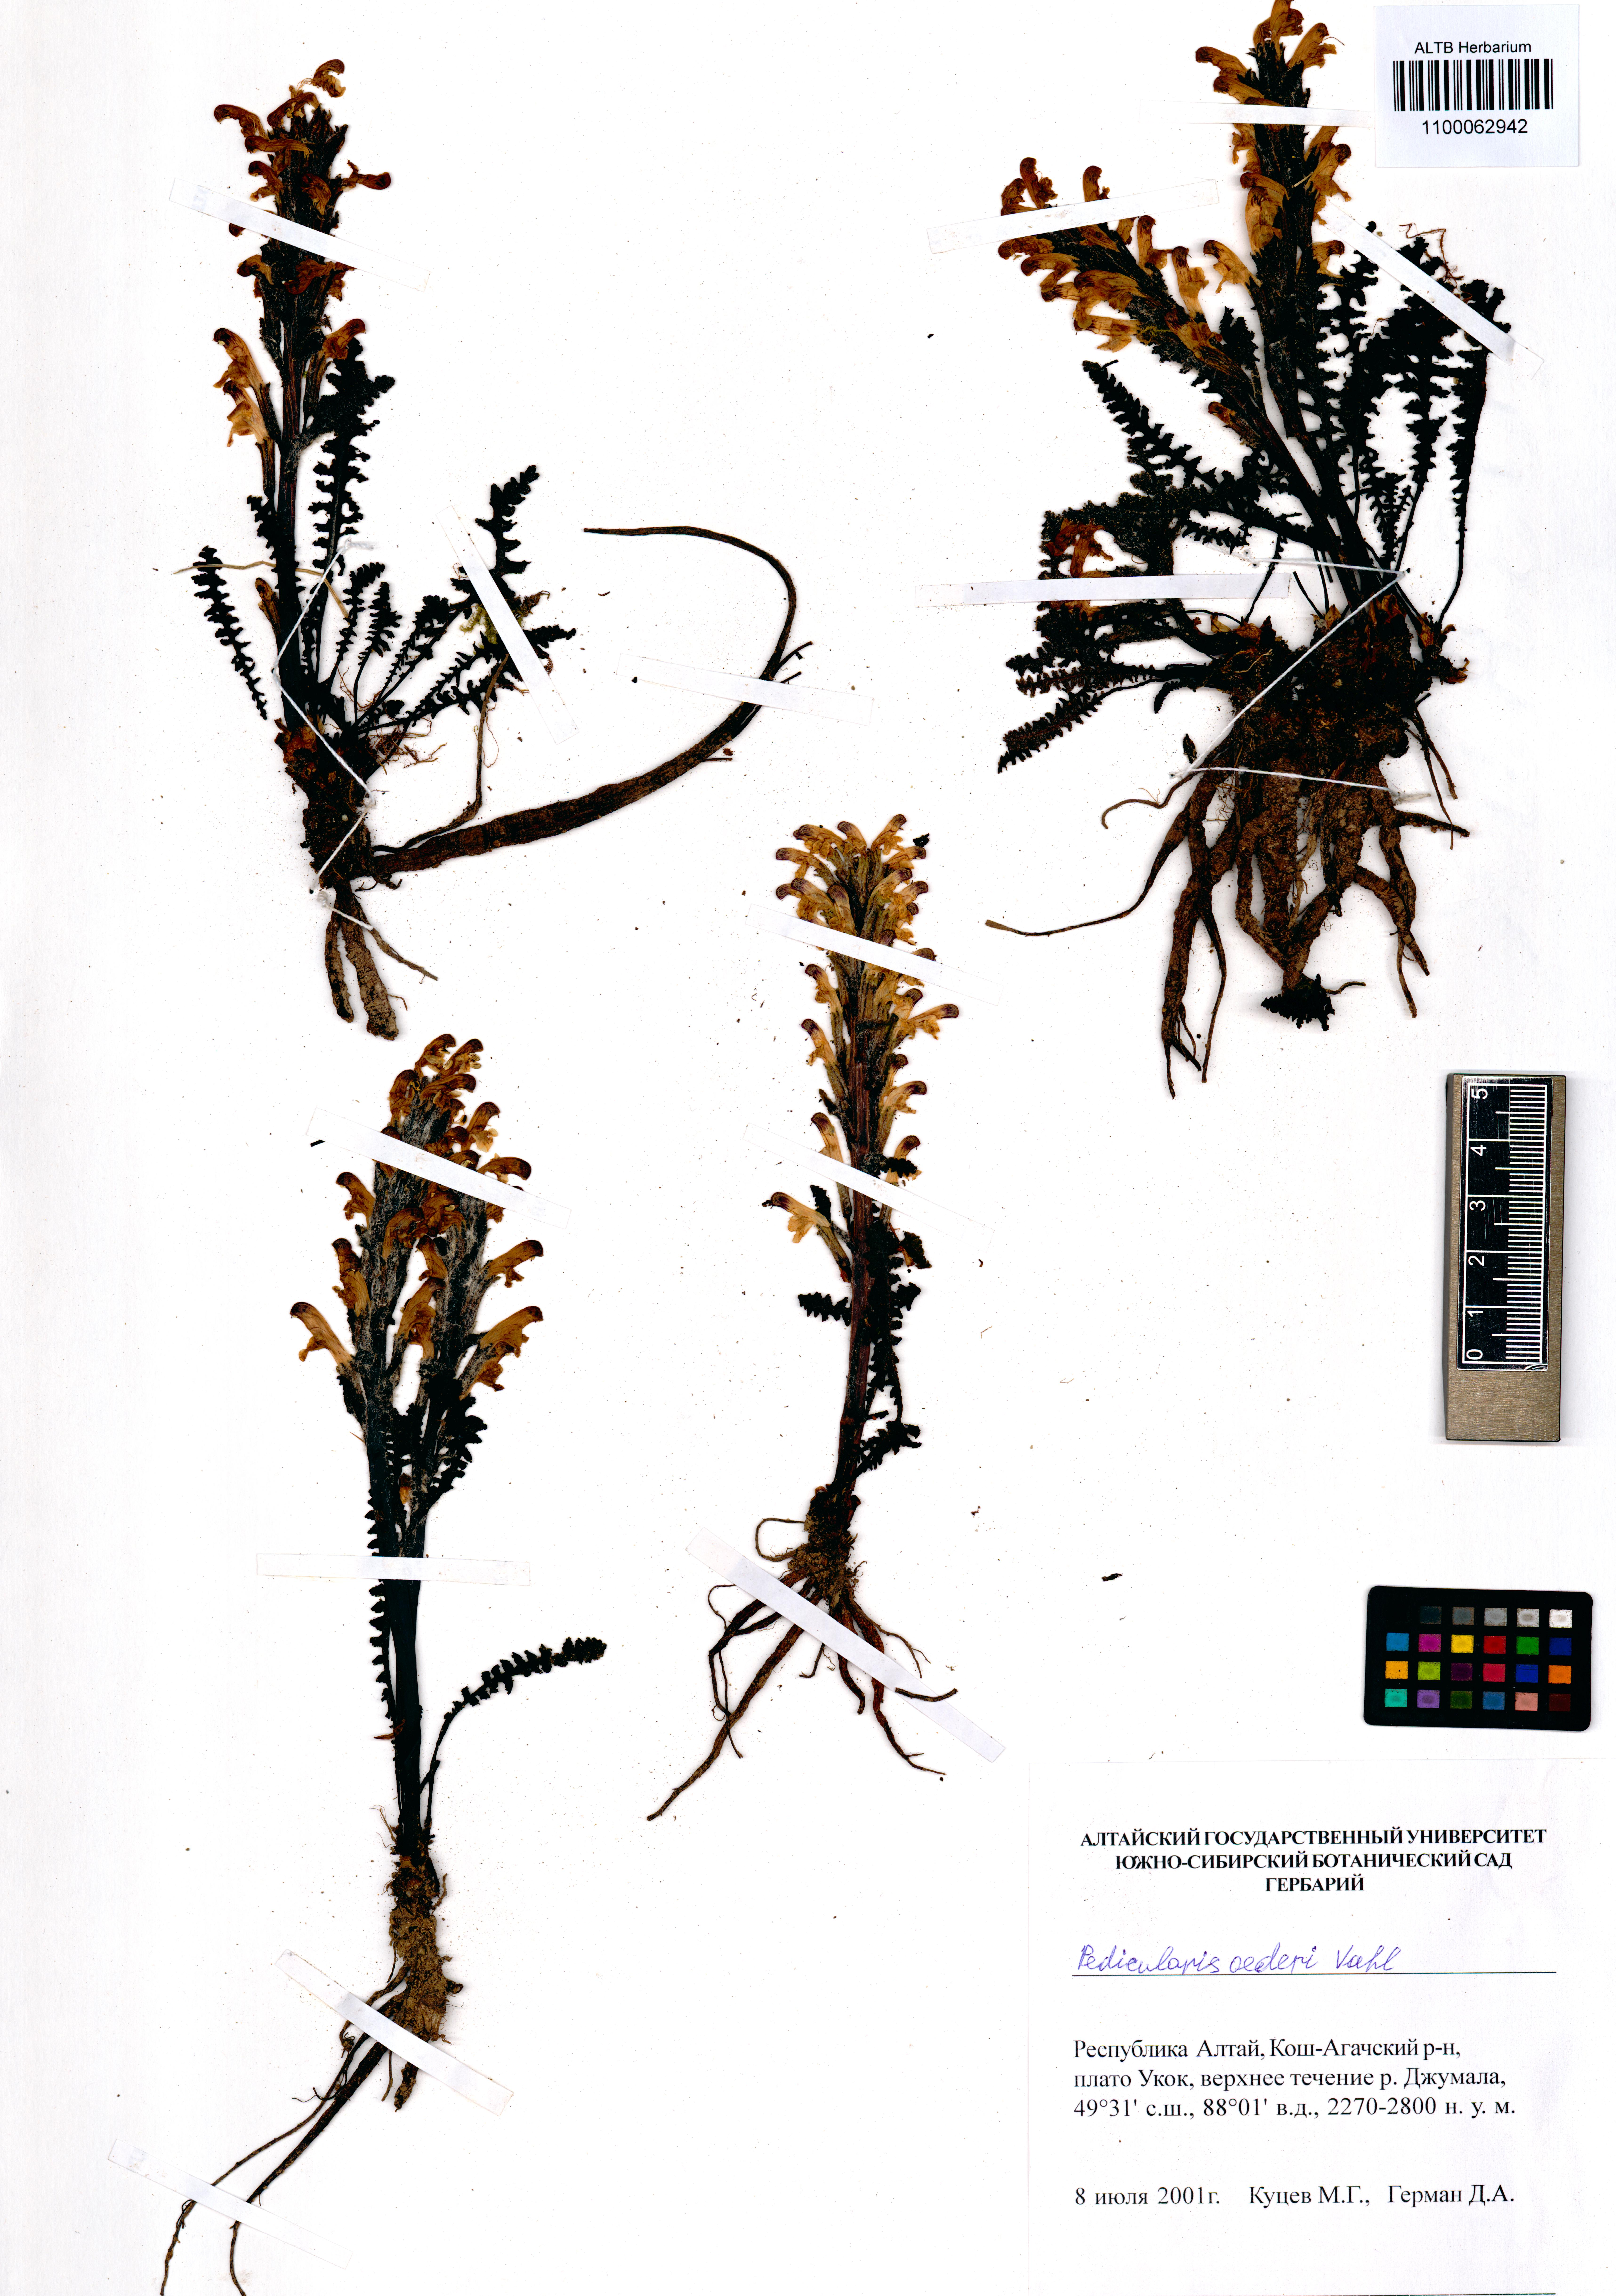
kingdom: Plantae
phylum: Tracheophyta
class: Magnoliopsida
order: Lamiales
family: Orobanchaceae
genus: Pedicularis
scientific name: Pedicularis oederi
